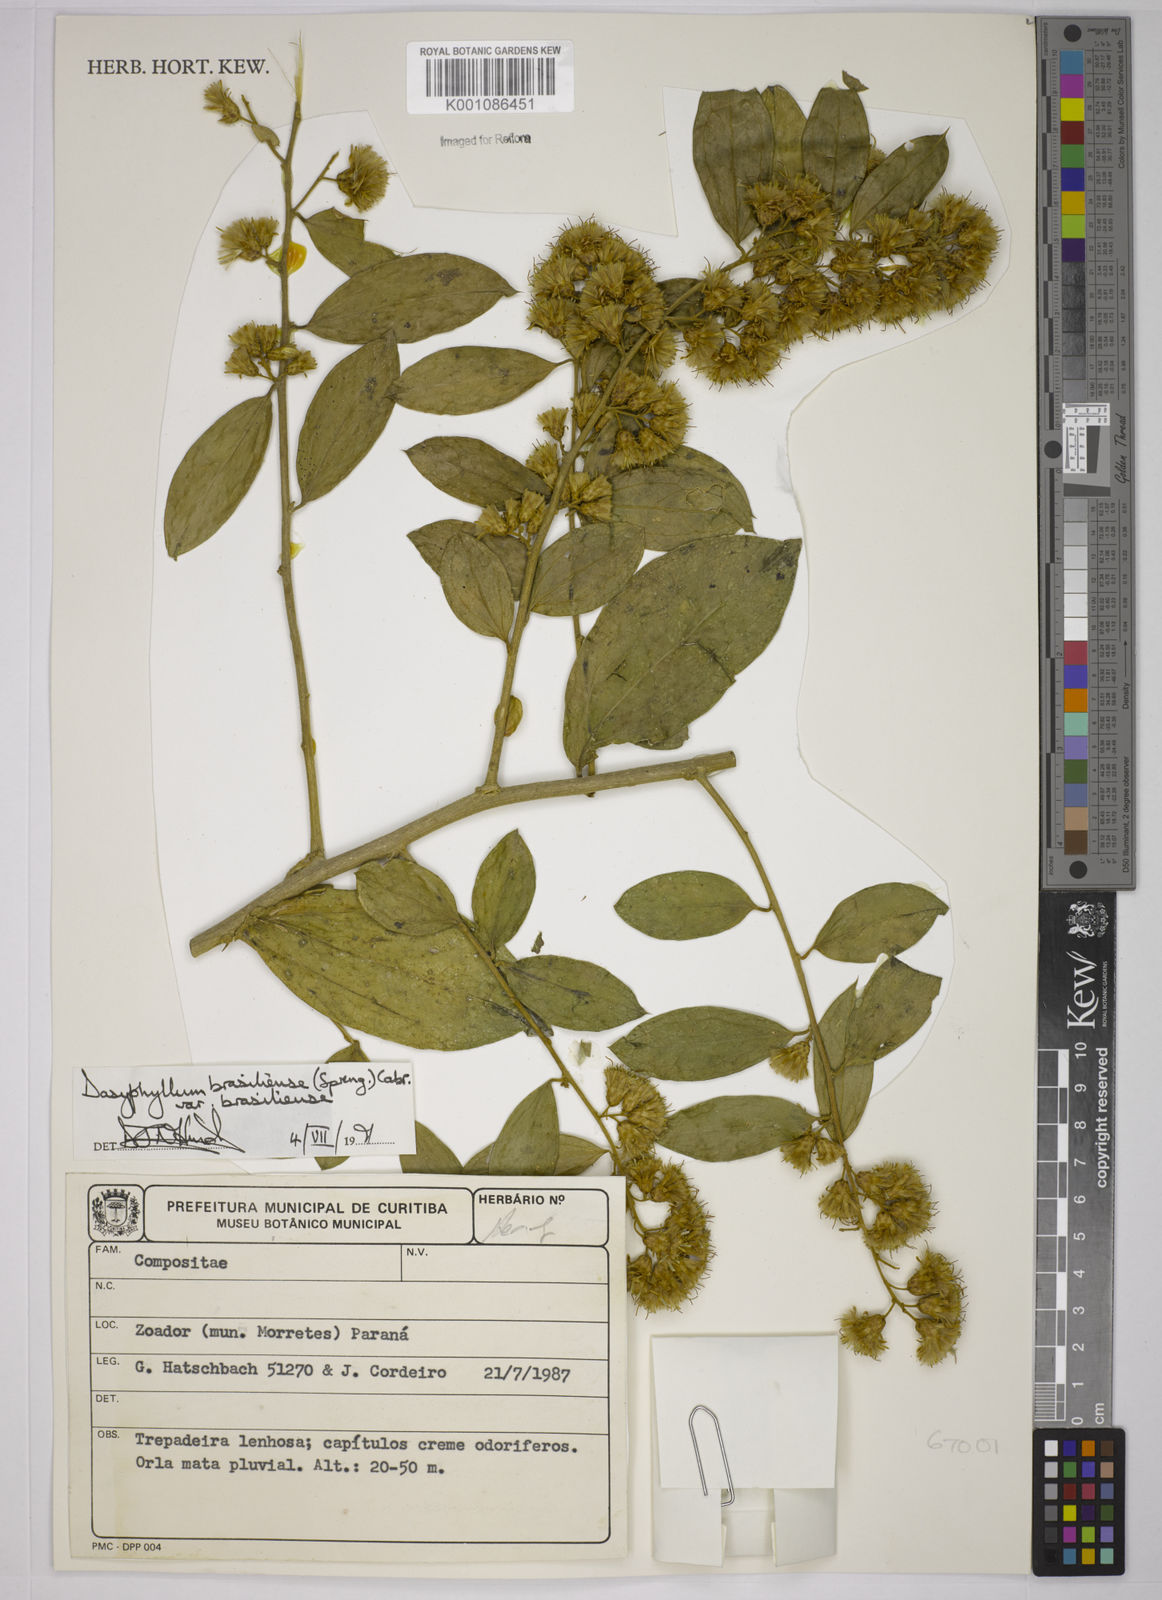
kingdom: Plantae
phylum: Tracheophyta
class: Magnoliopsida
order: Asterales
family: Asteraceae
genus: Dasyphyllum
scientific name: Dasyphyllum brasiliense
